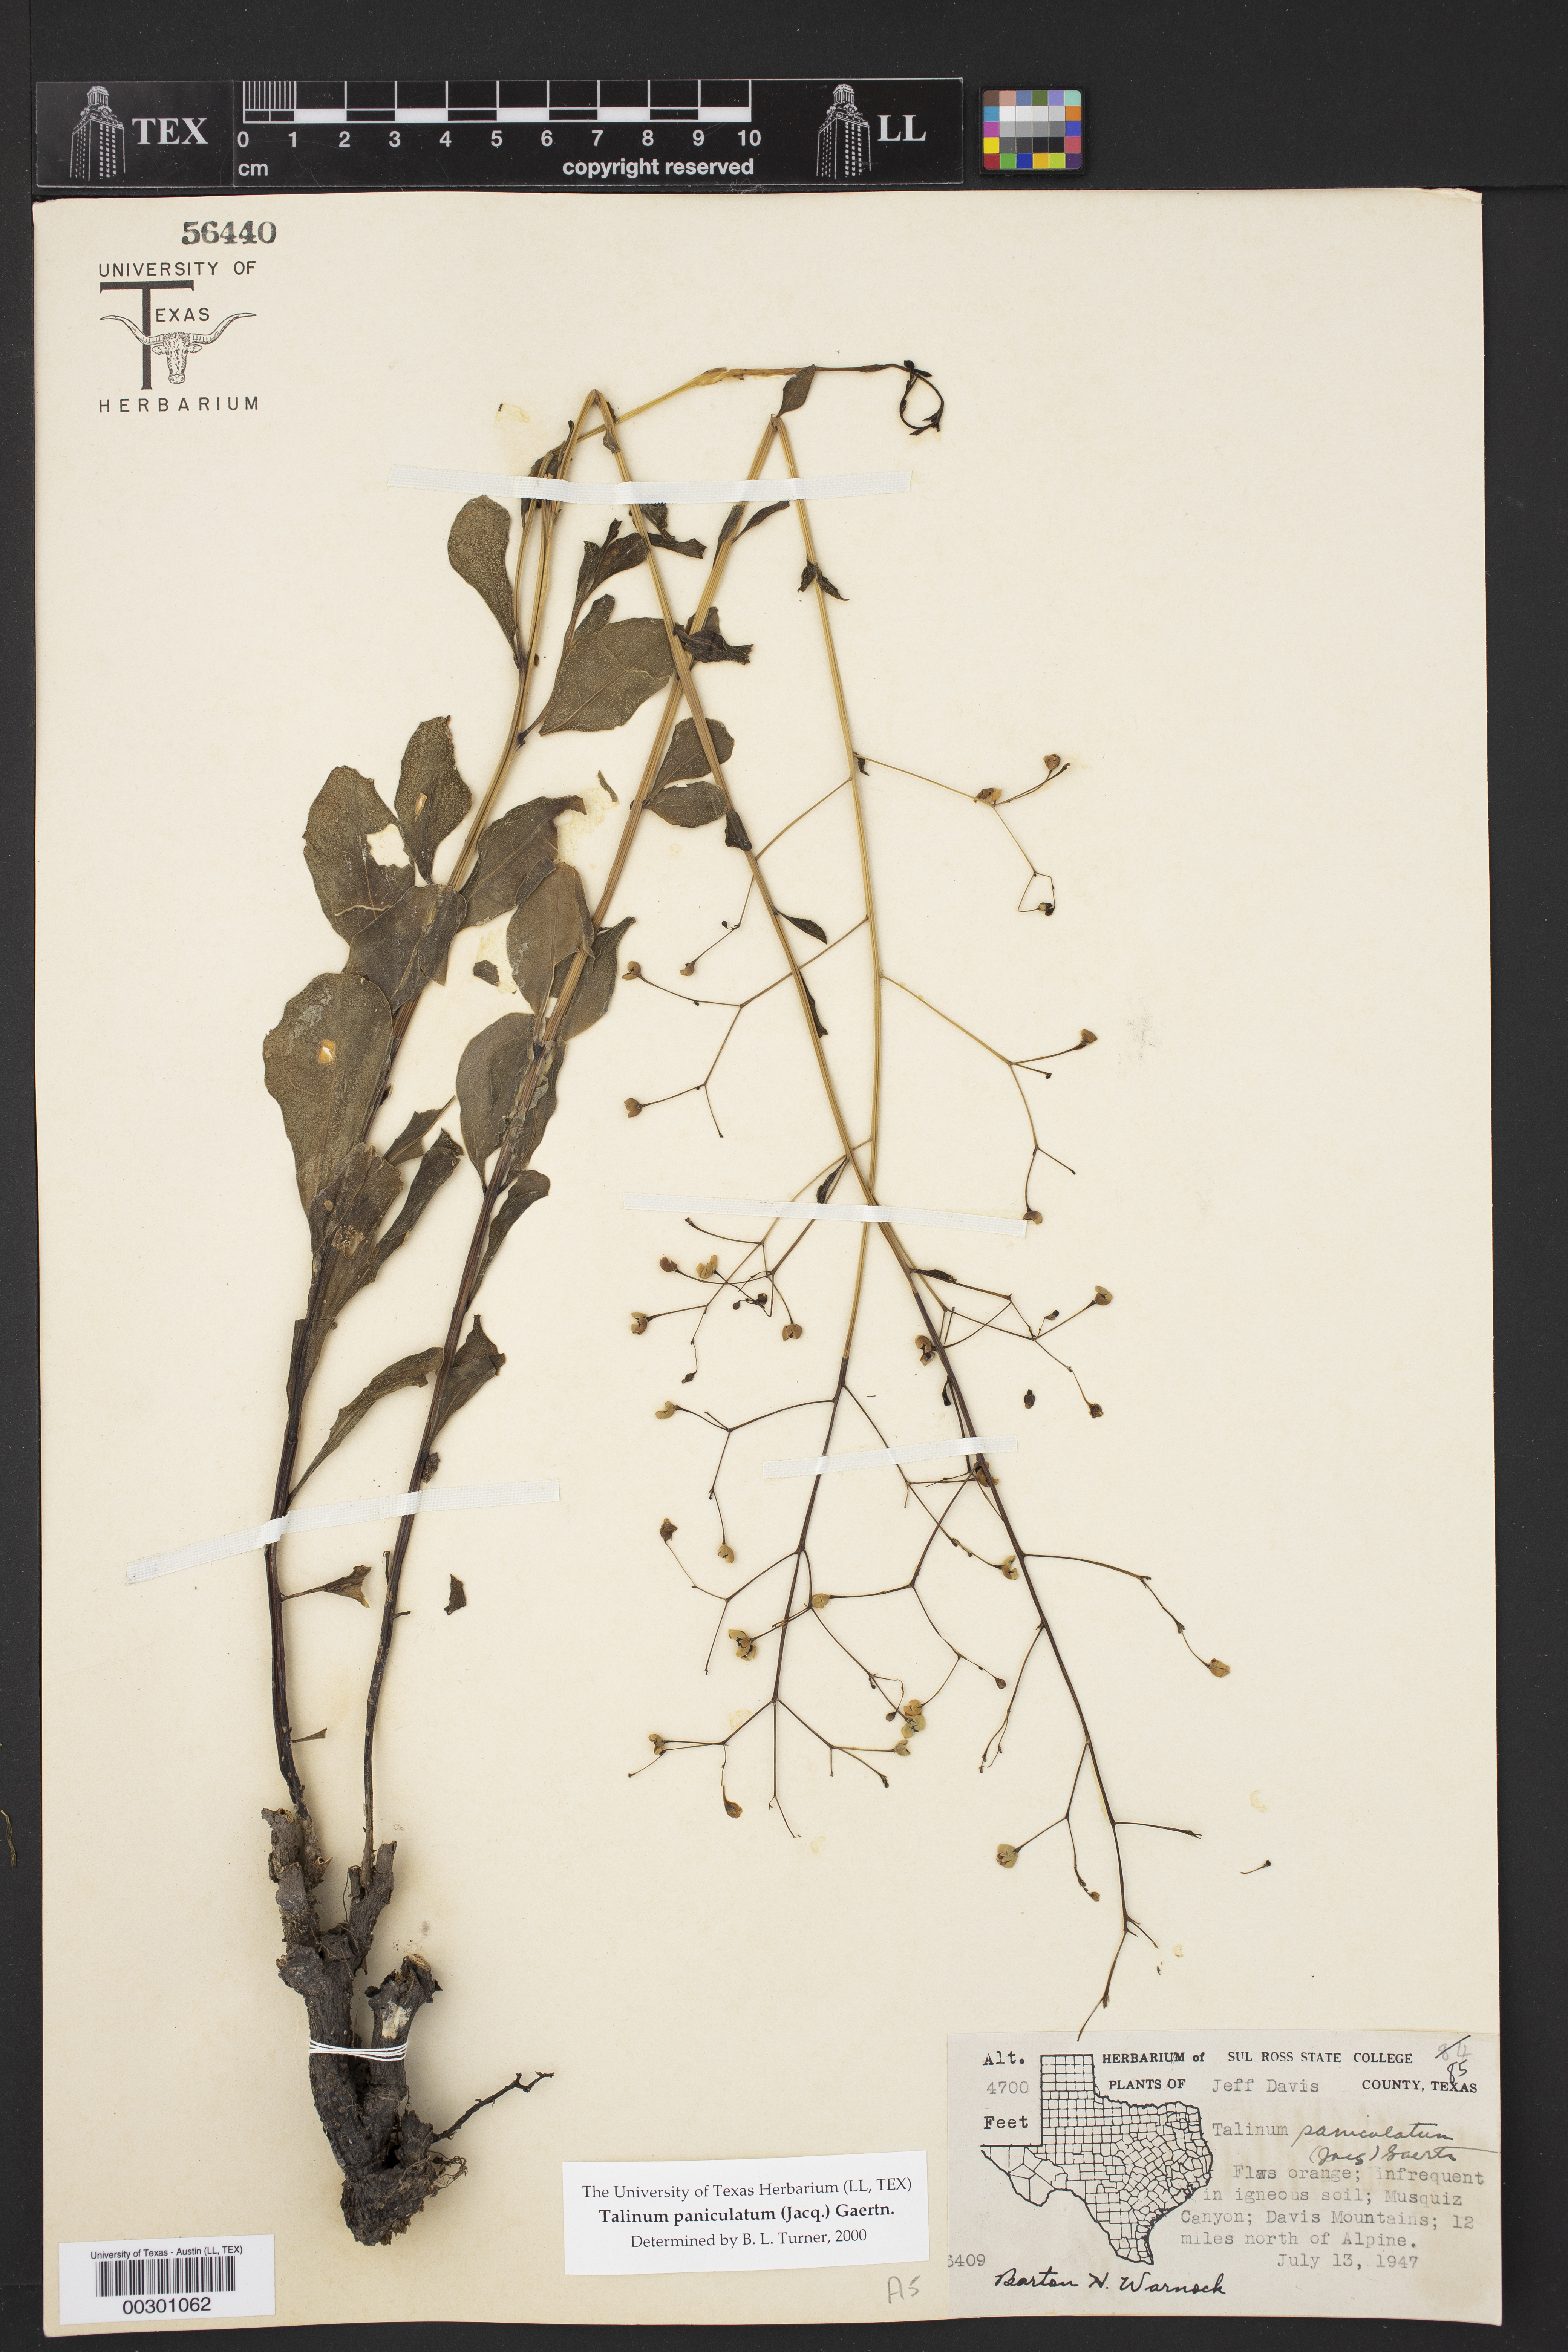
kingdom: Plantae
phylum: Tracheophyta
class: Magnoliopsida
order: Caryophyllales
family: Talinaceae
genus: Talinum
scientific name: Talinum paniculatum
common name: Jewels of opar
